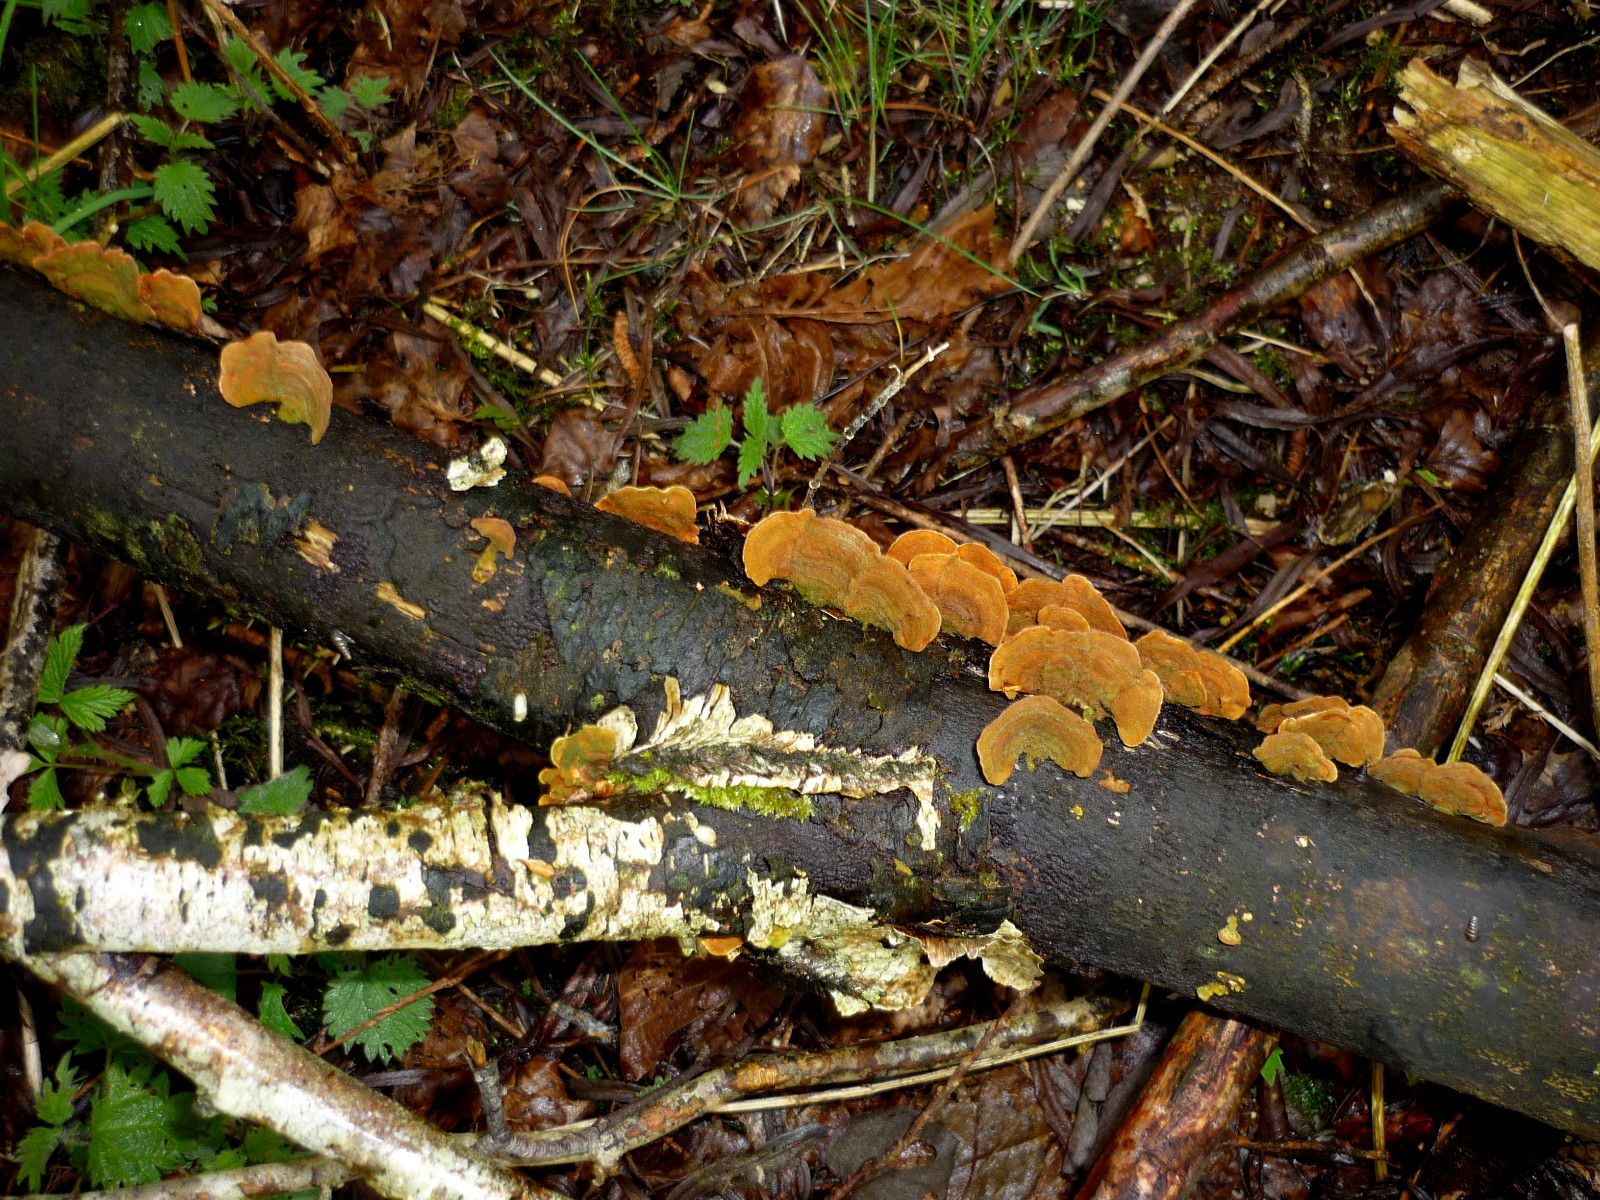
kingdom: Fungi
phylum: Basidiomycota
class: Agaricomycetes
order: Russulales
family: Stereaceae
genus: Stereum
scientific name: Stereum subtomentosum
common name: smuk lædersvamp
